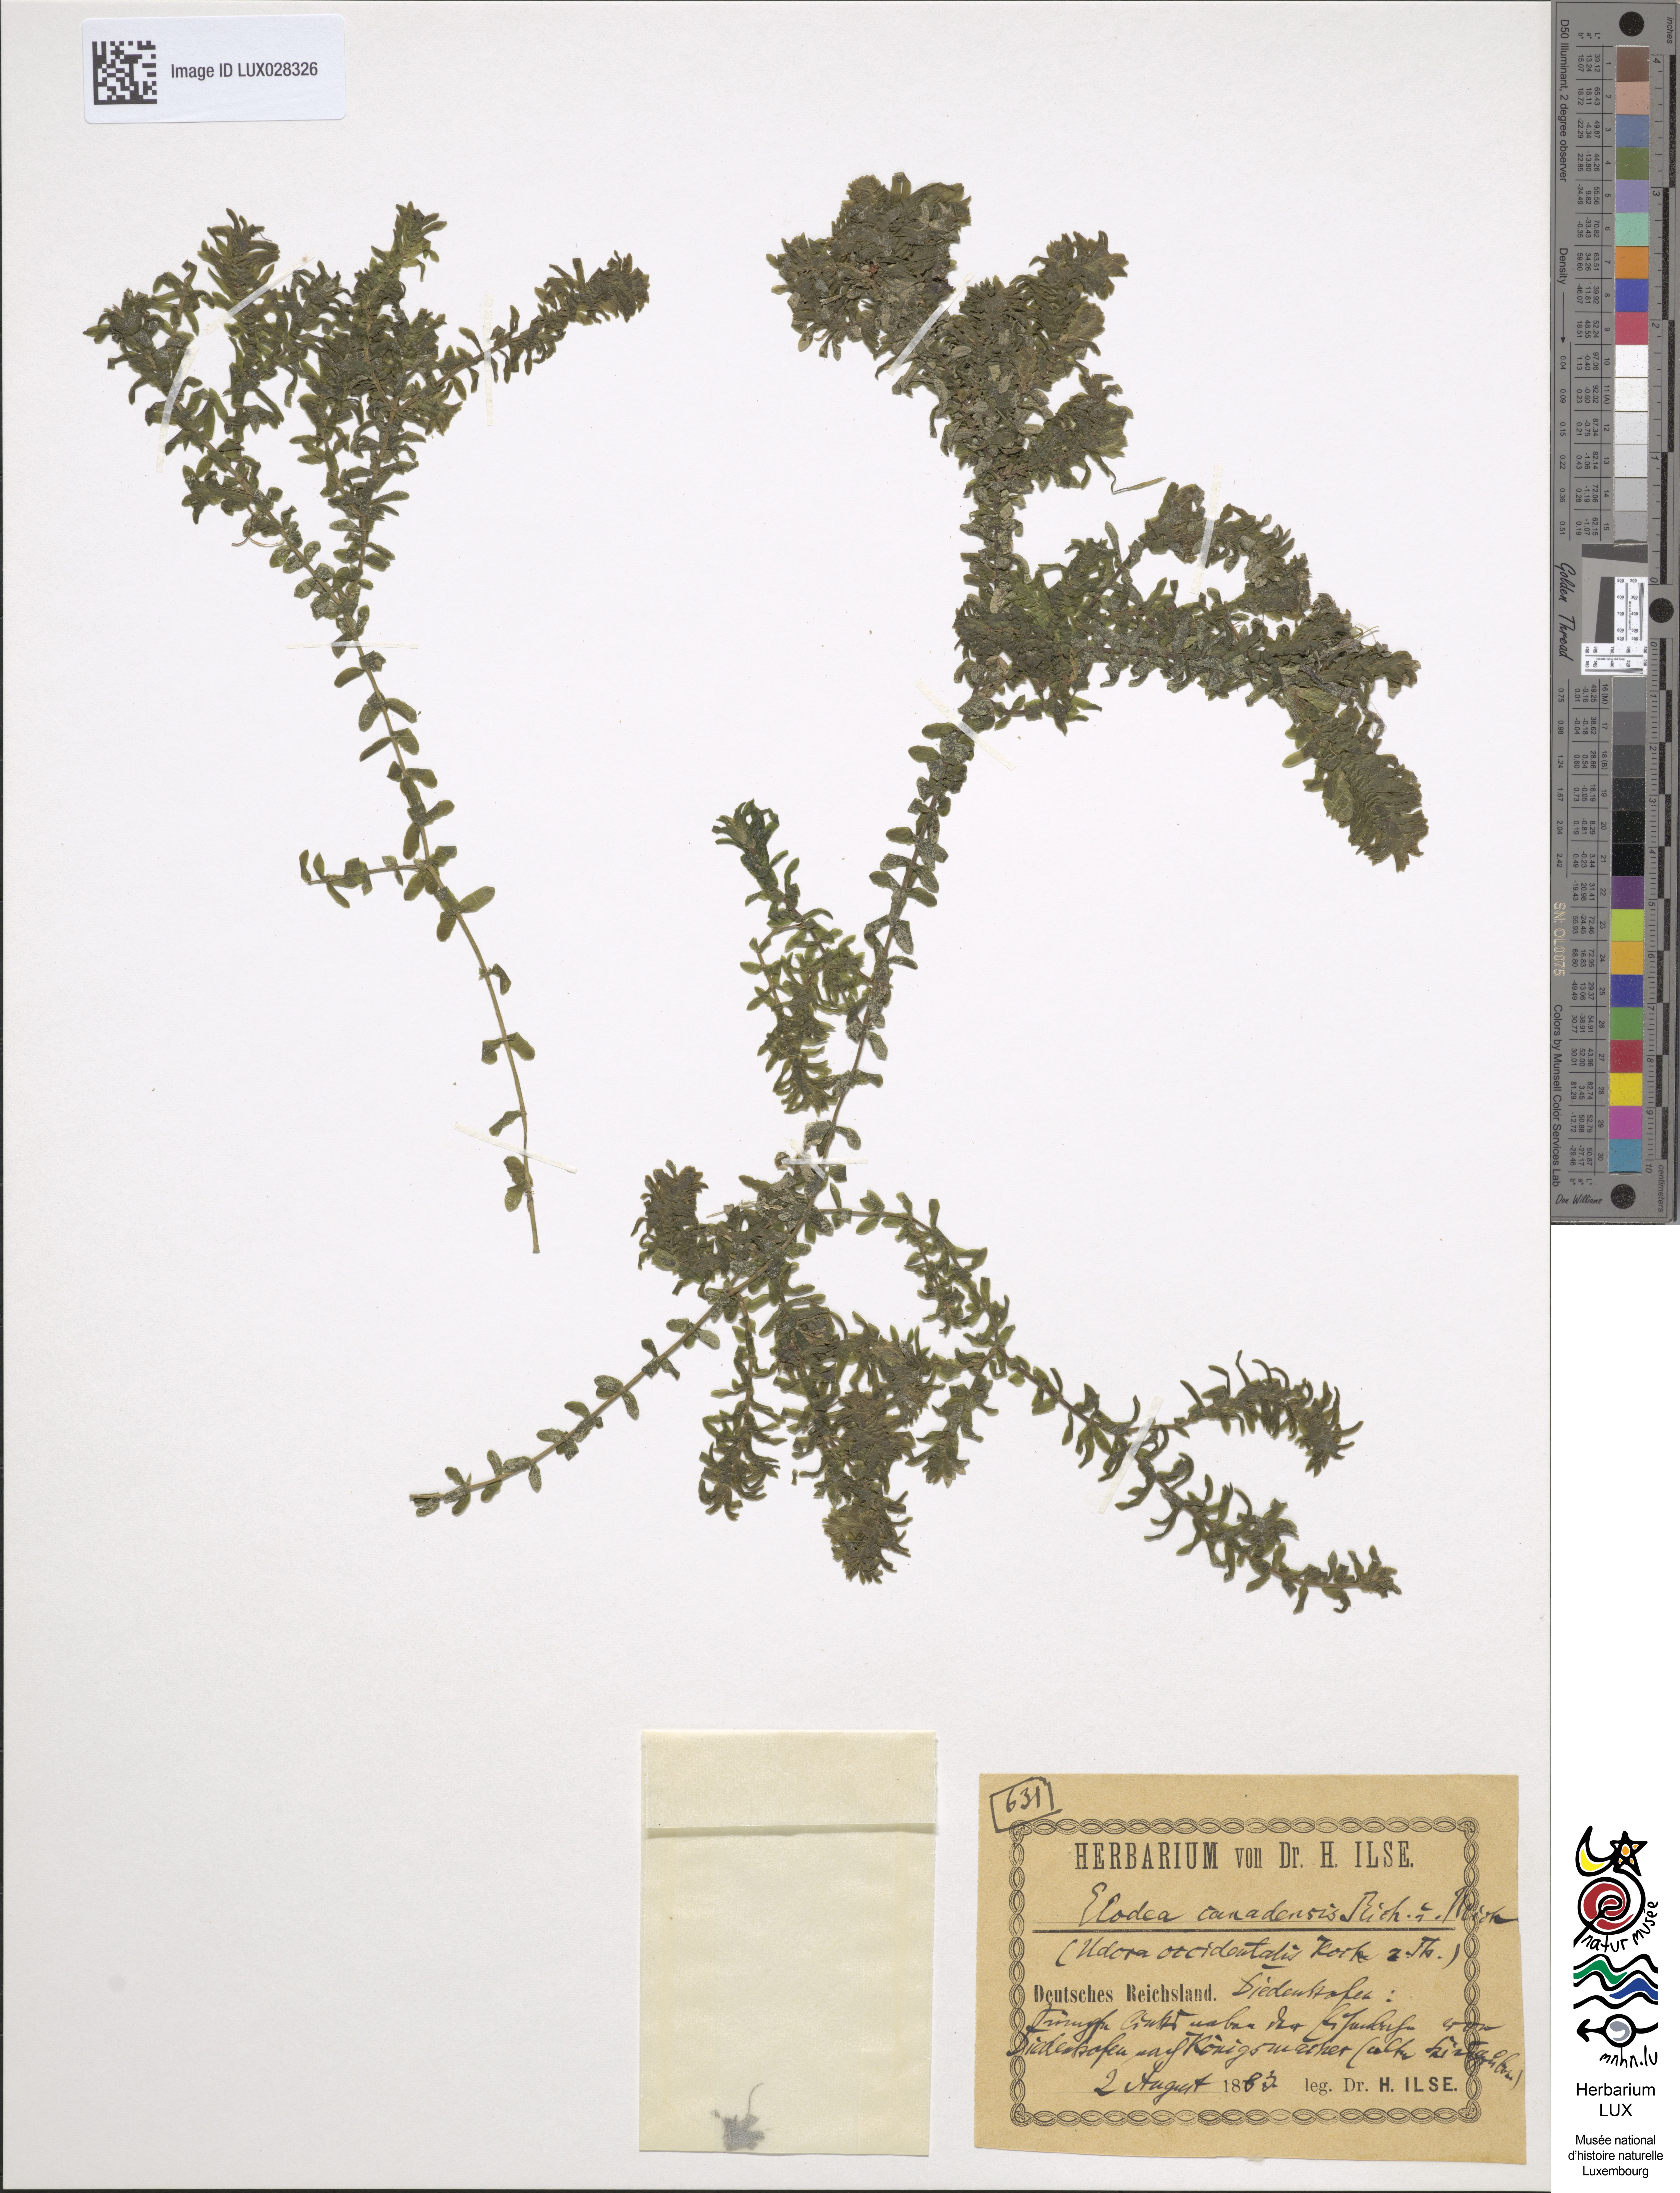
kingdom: Plantae
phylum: Tracheophyta
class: Liliopsida
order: Alismatales
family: Hydrocharitaceae
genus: Elodea
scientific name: Elodea canadensis
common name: Canadian waterweed
